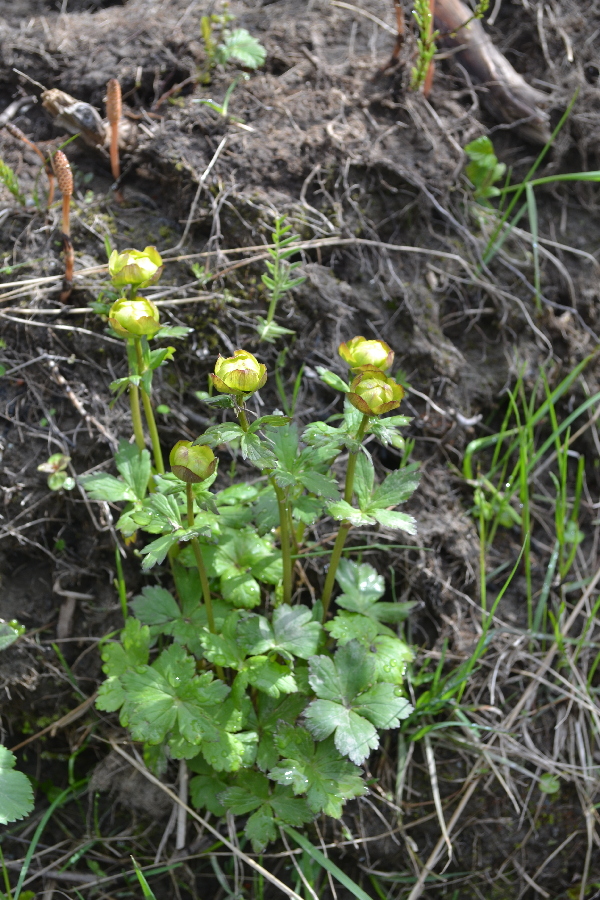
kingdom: Plantae
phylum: Tracheophyta
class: Magnoliopsida
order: Ranunculales
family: Ranunculaceae
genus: Trollius
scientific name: Trollius apertus
